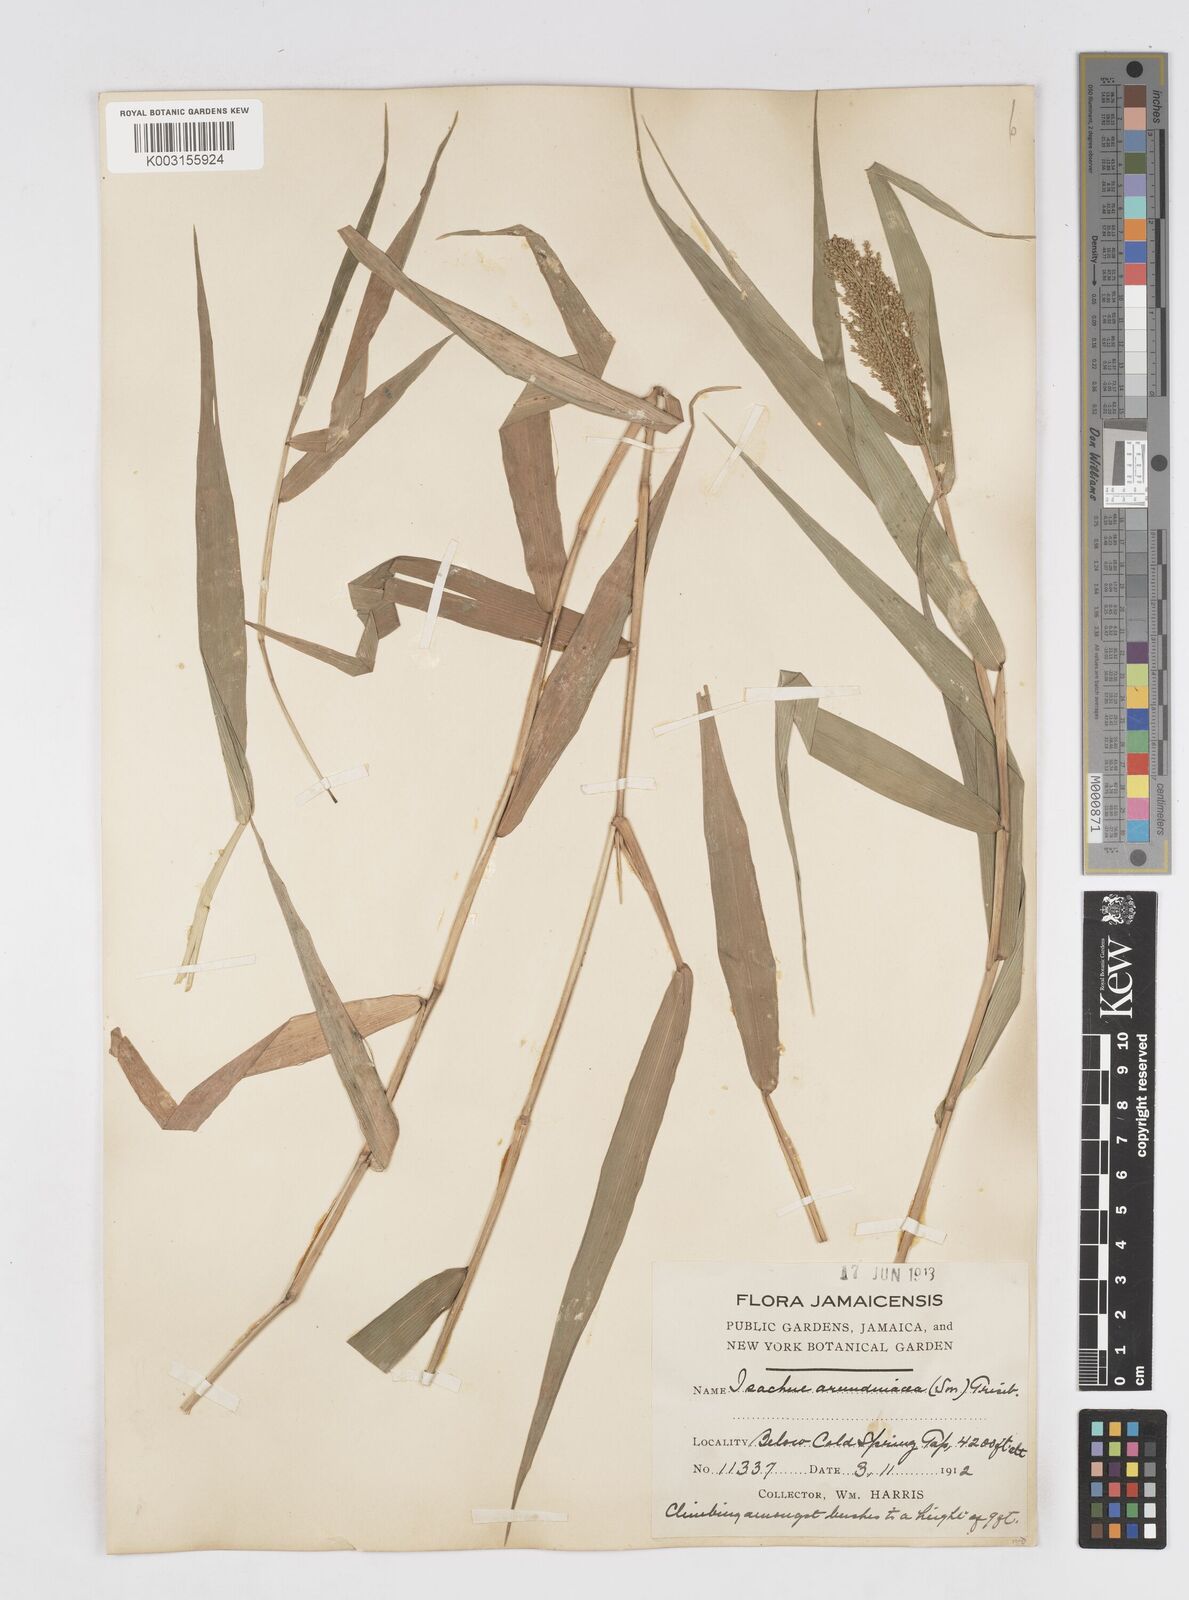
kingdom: Plantae
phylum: Tracheophyta
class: Liliopsida
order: Poales
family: Poaceae
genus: Isachne
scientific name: Isachne arundinacea
